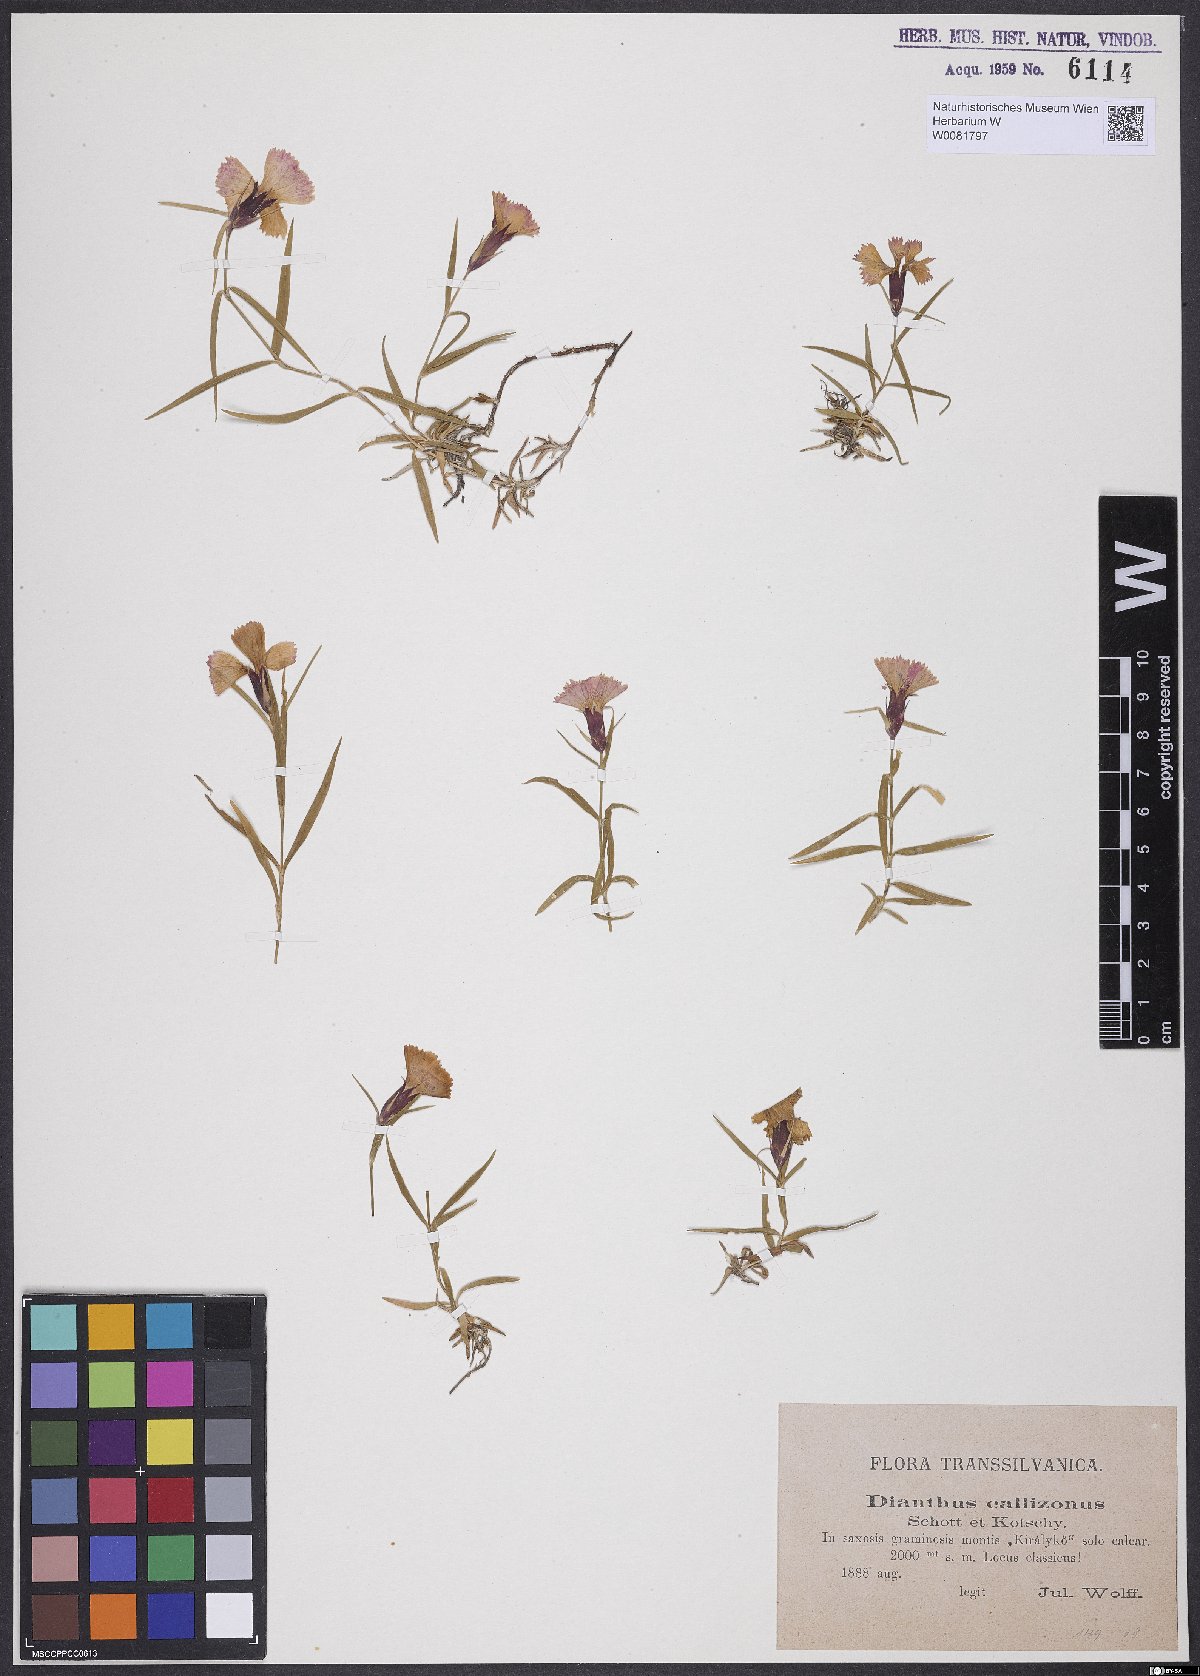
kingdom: Plantae
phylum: Tracheophyta
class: Magnoliopsida
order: Caryophyllales
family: Caryophyllaceae
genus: Dianthus
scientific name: Dianthus callizonus
